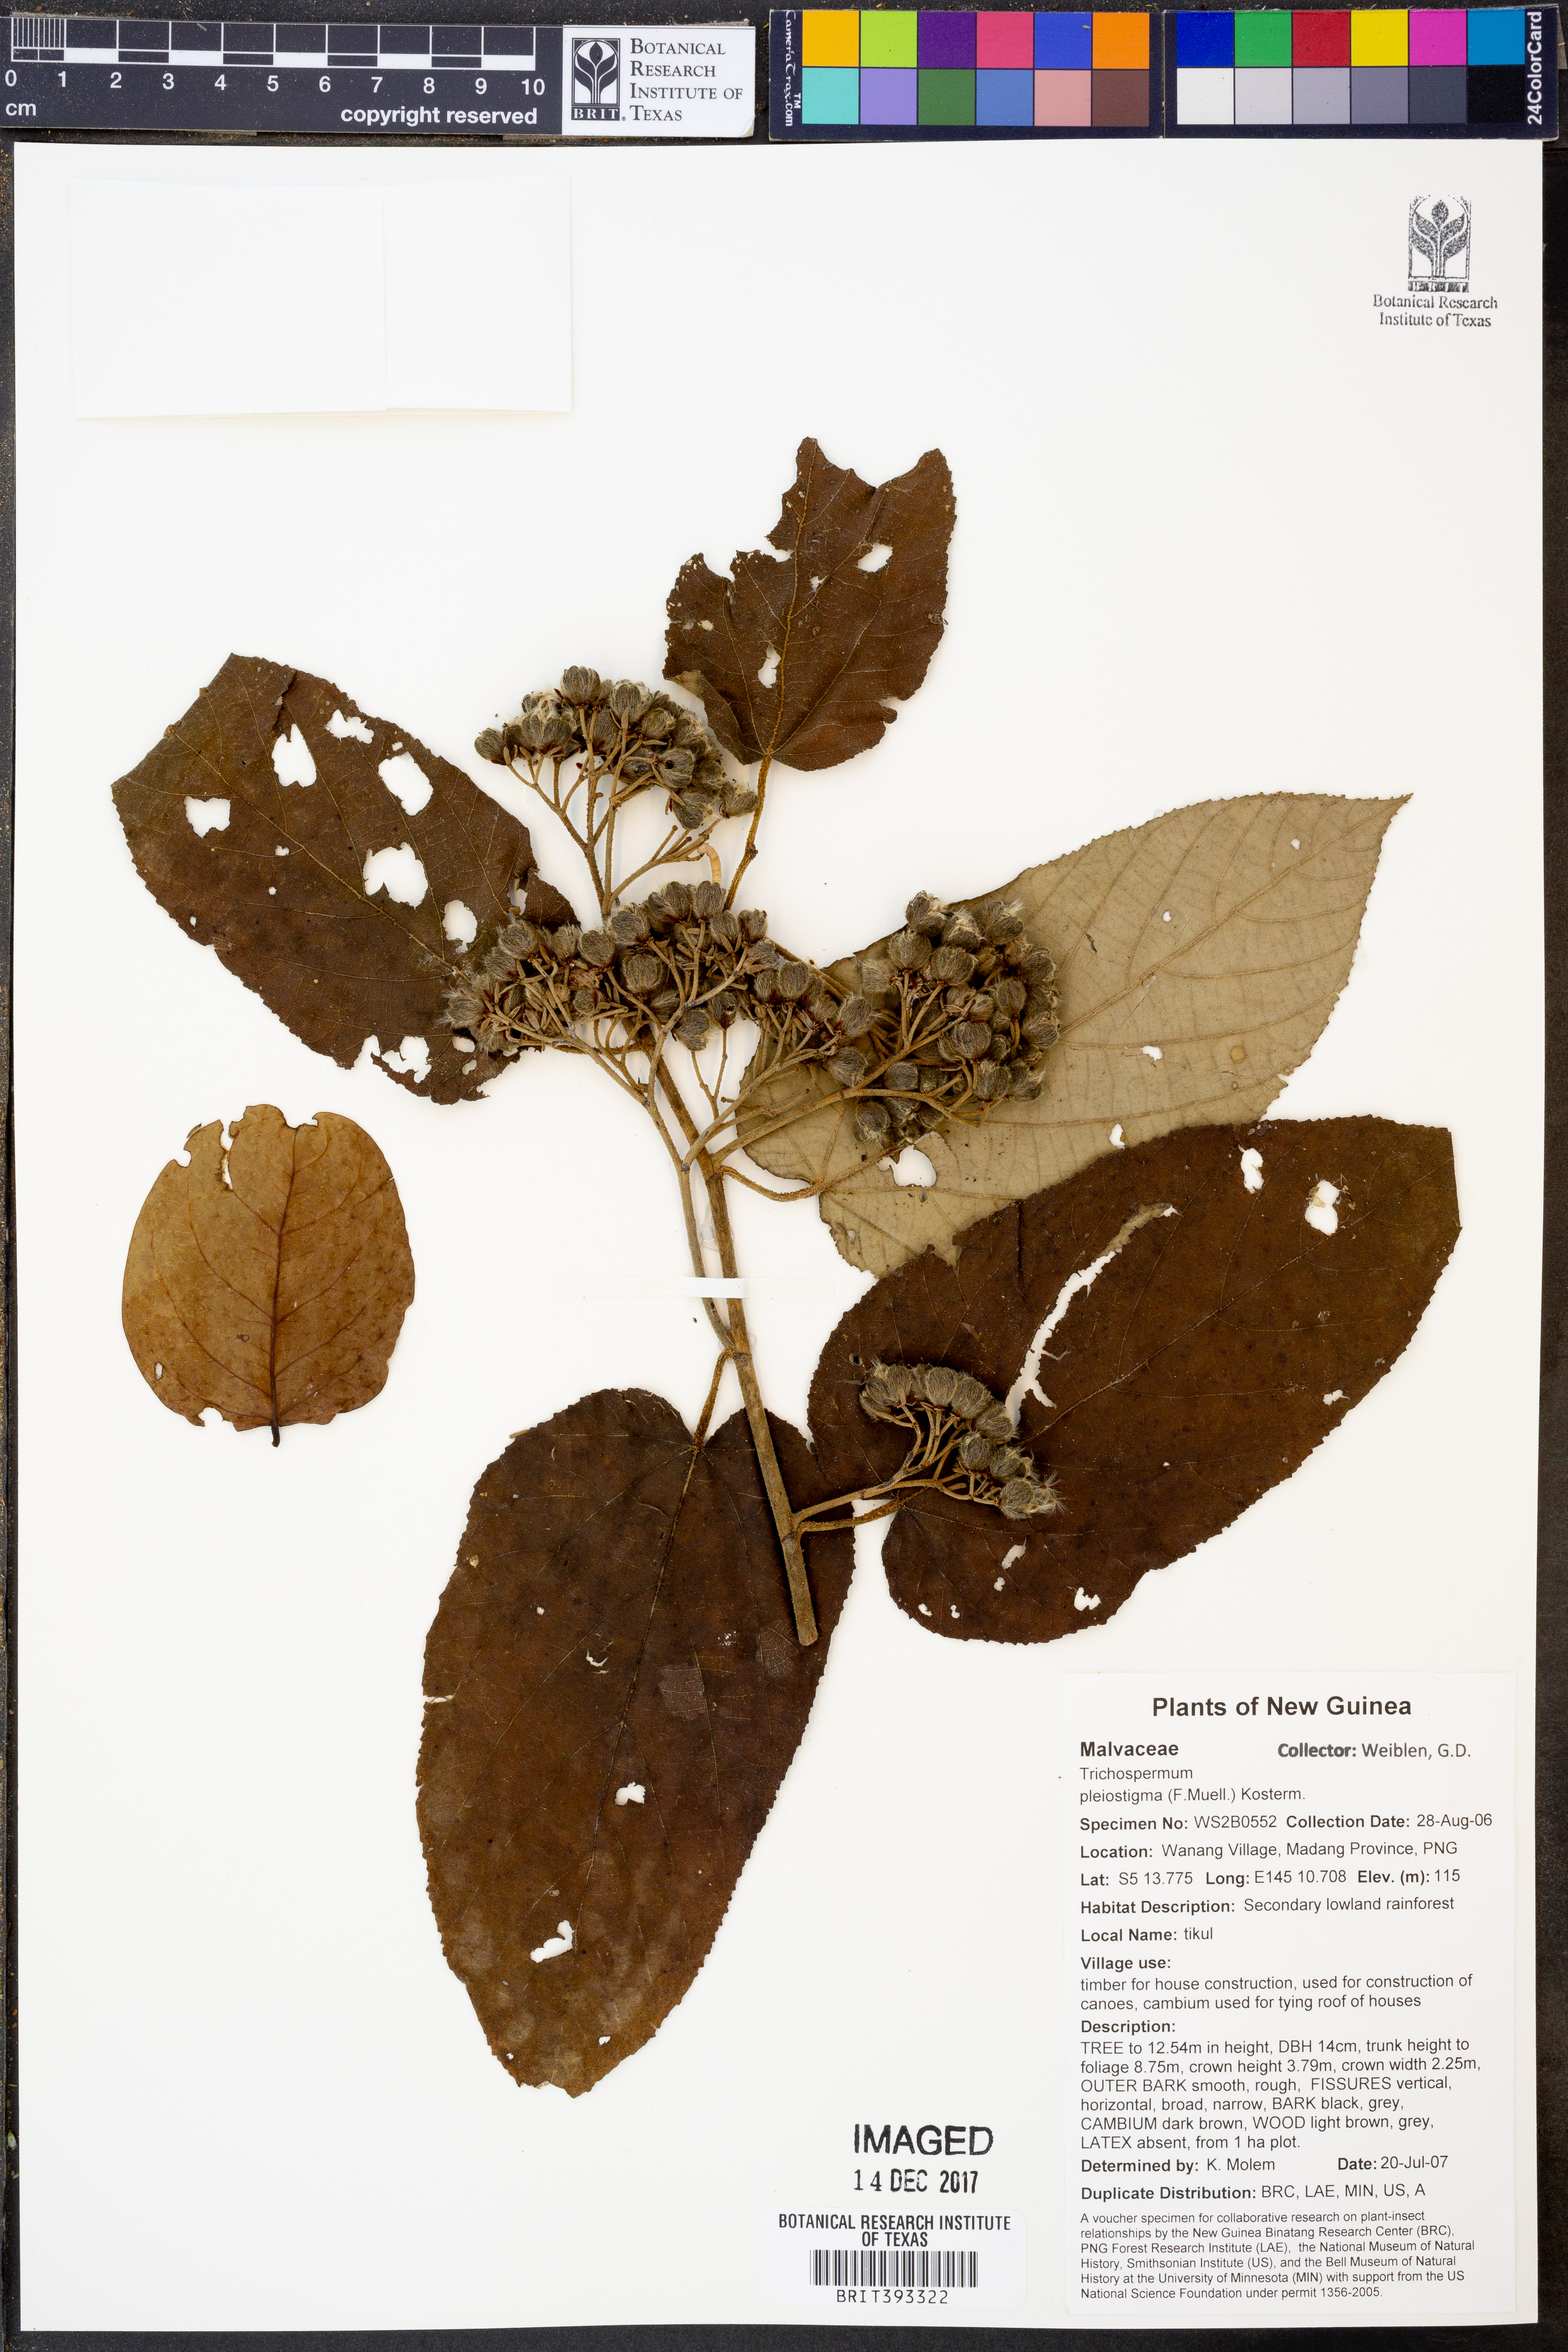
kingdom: Plantae
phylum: Tracheophyta
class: Magnoliopsida
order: Malvales
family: Malvaceae
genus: Trichospermum
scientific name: Trichospermum pleiostigma
